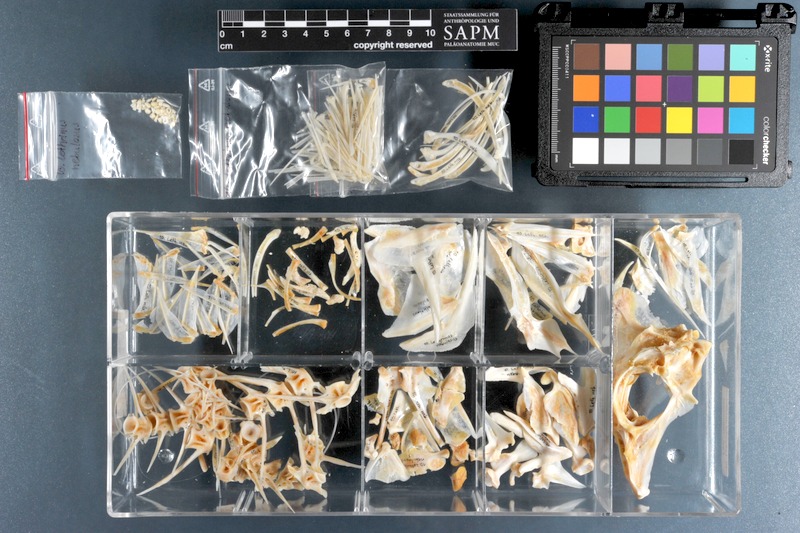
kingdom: Animalia
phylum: Chordata
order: Perciformes
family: Lethrinidae
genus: Lethrinus
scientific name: Lethrinus nebulosus
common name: Spangled emperor
